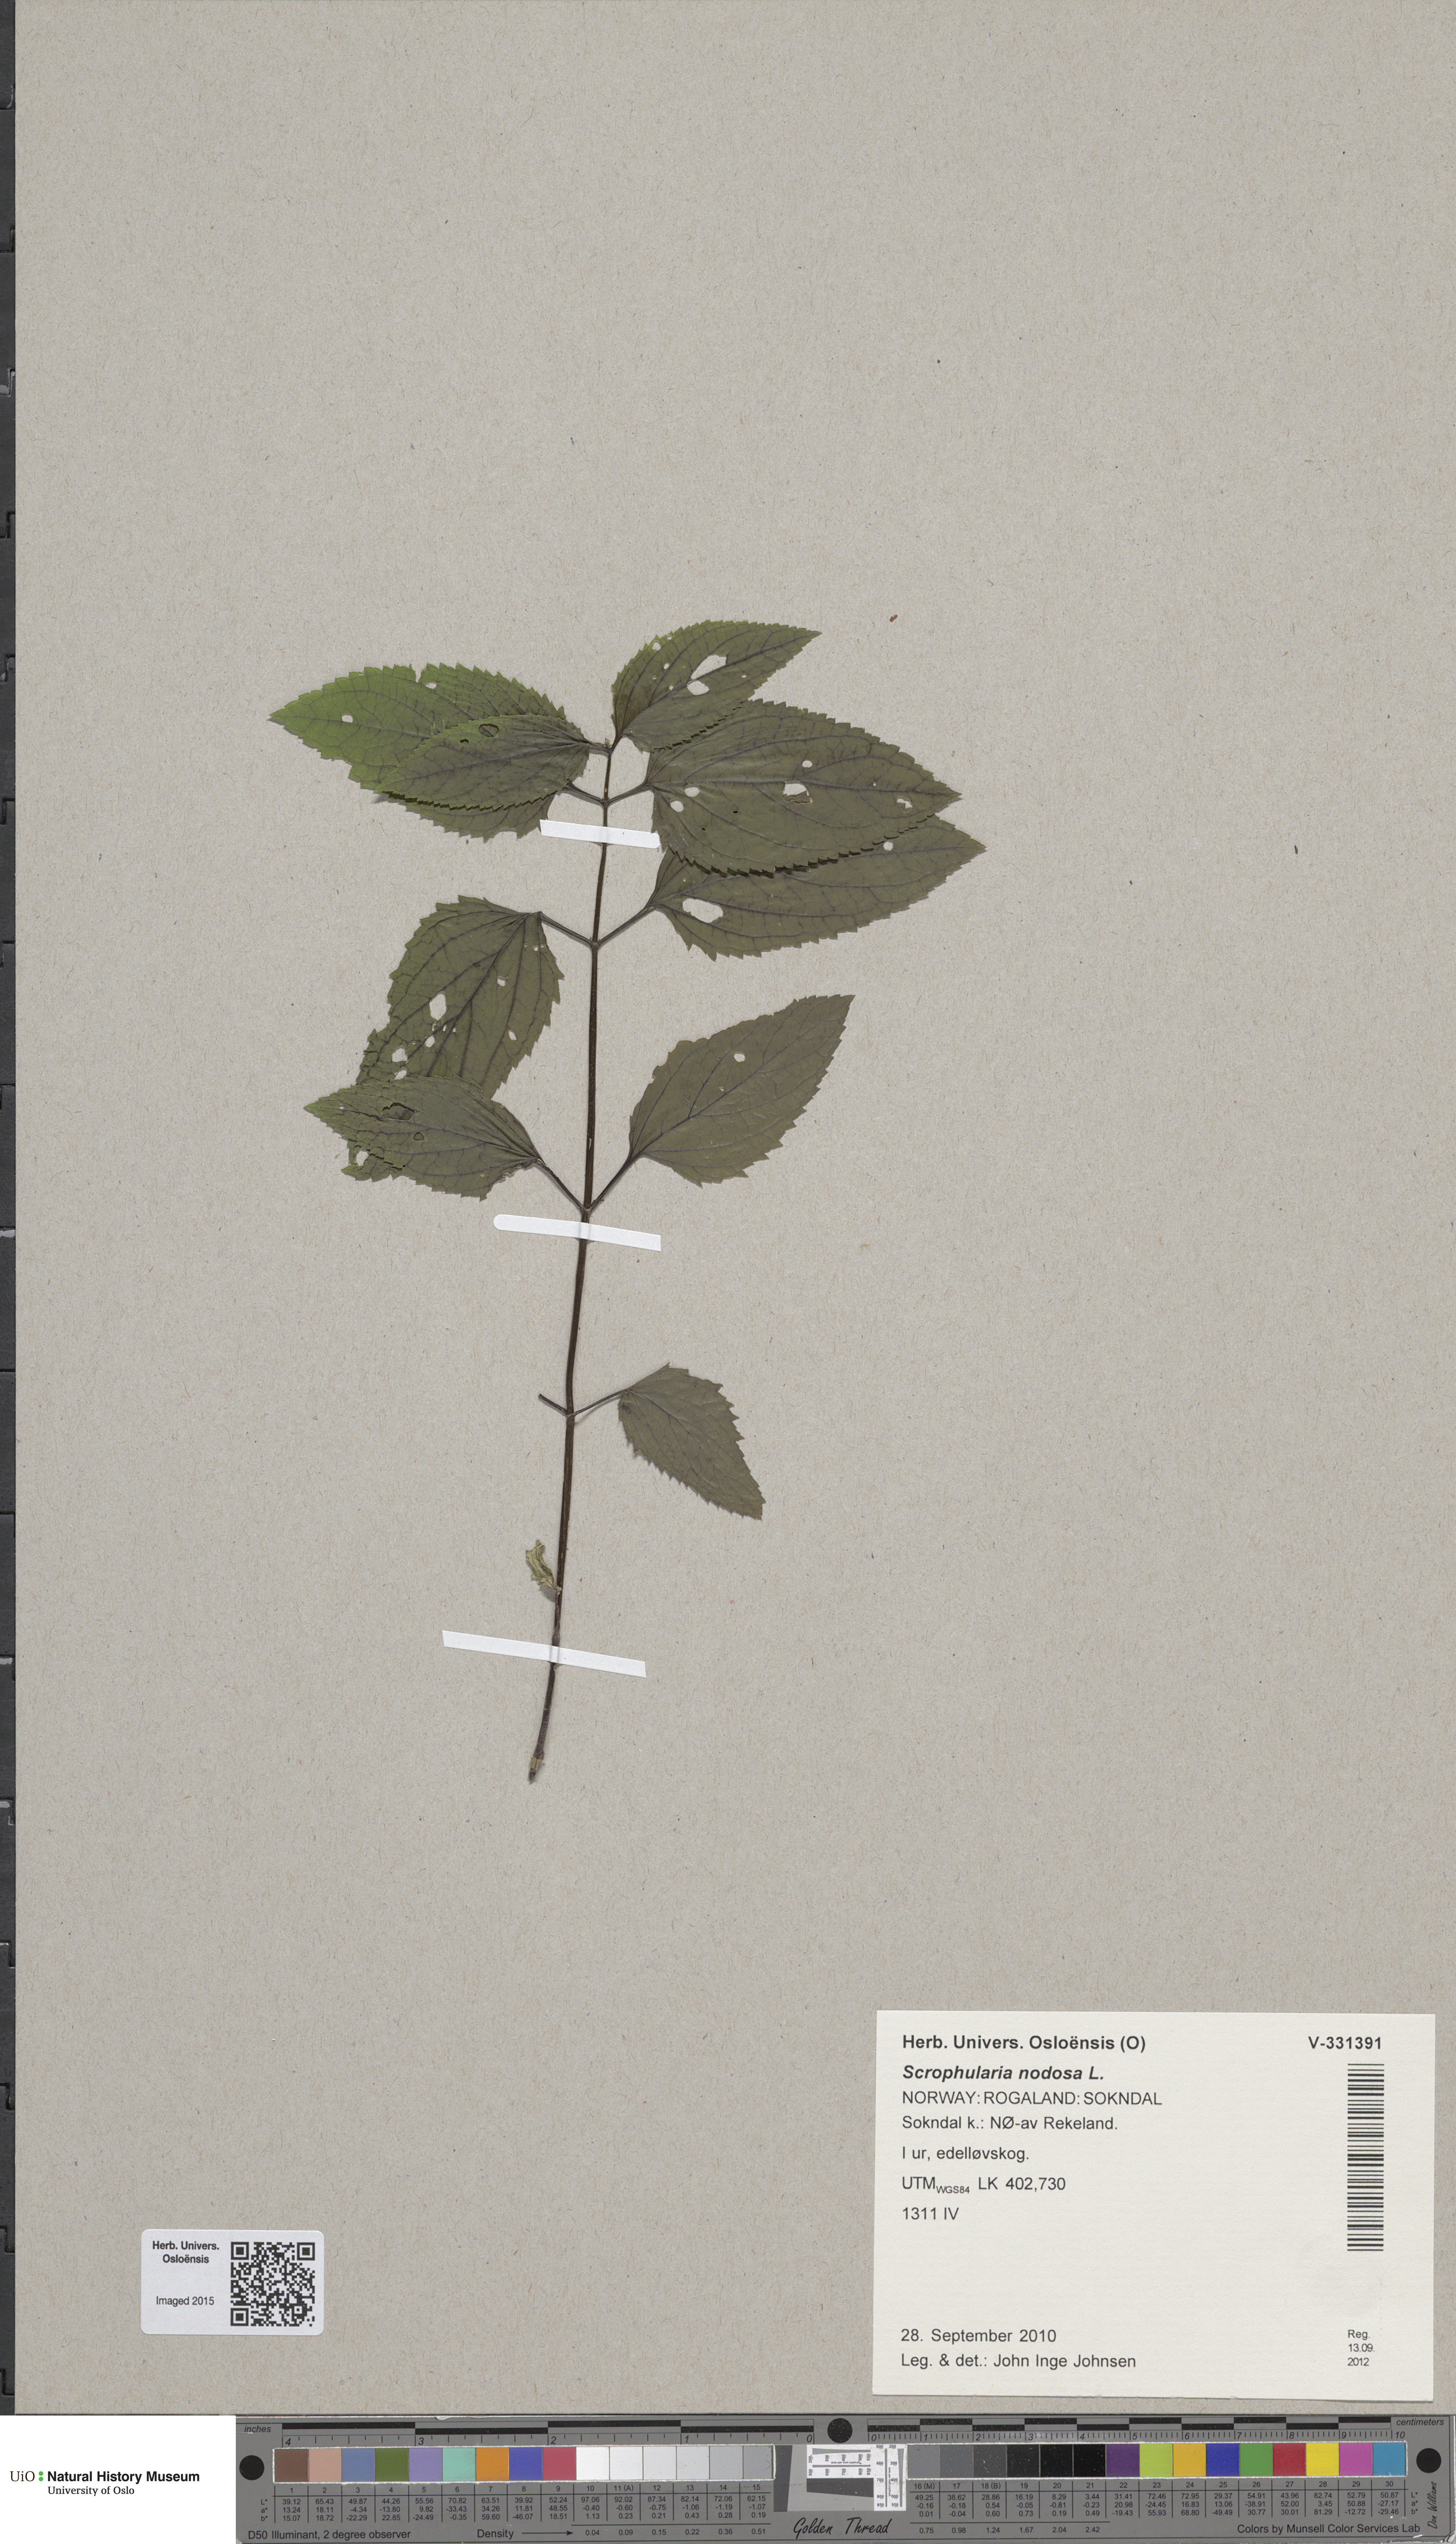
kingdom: Plantae
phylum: Tracheophyta
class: Magnoliopsida
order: Lamiales
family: Scrophulariaceae
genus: Scrophularia
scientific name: Scrophularia nodosa
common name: Common figwort
